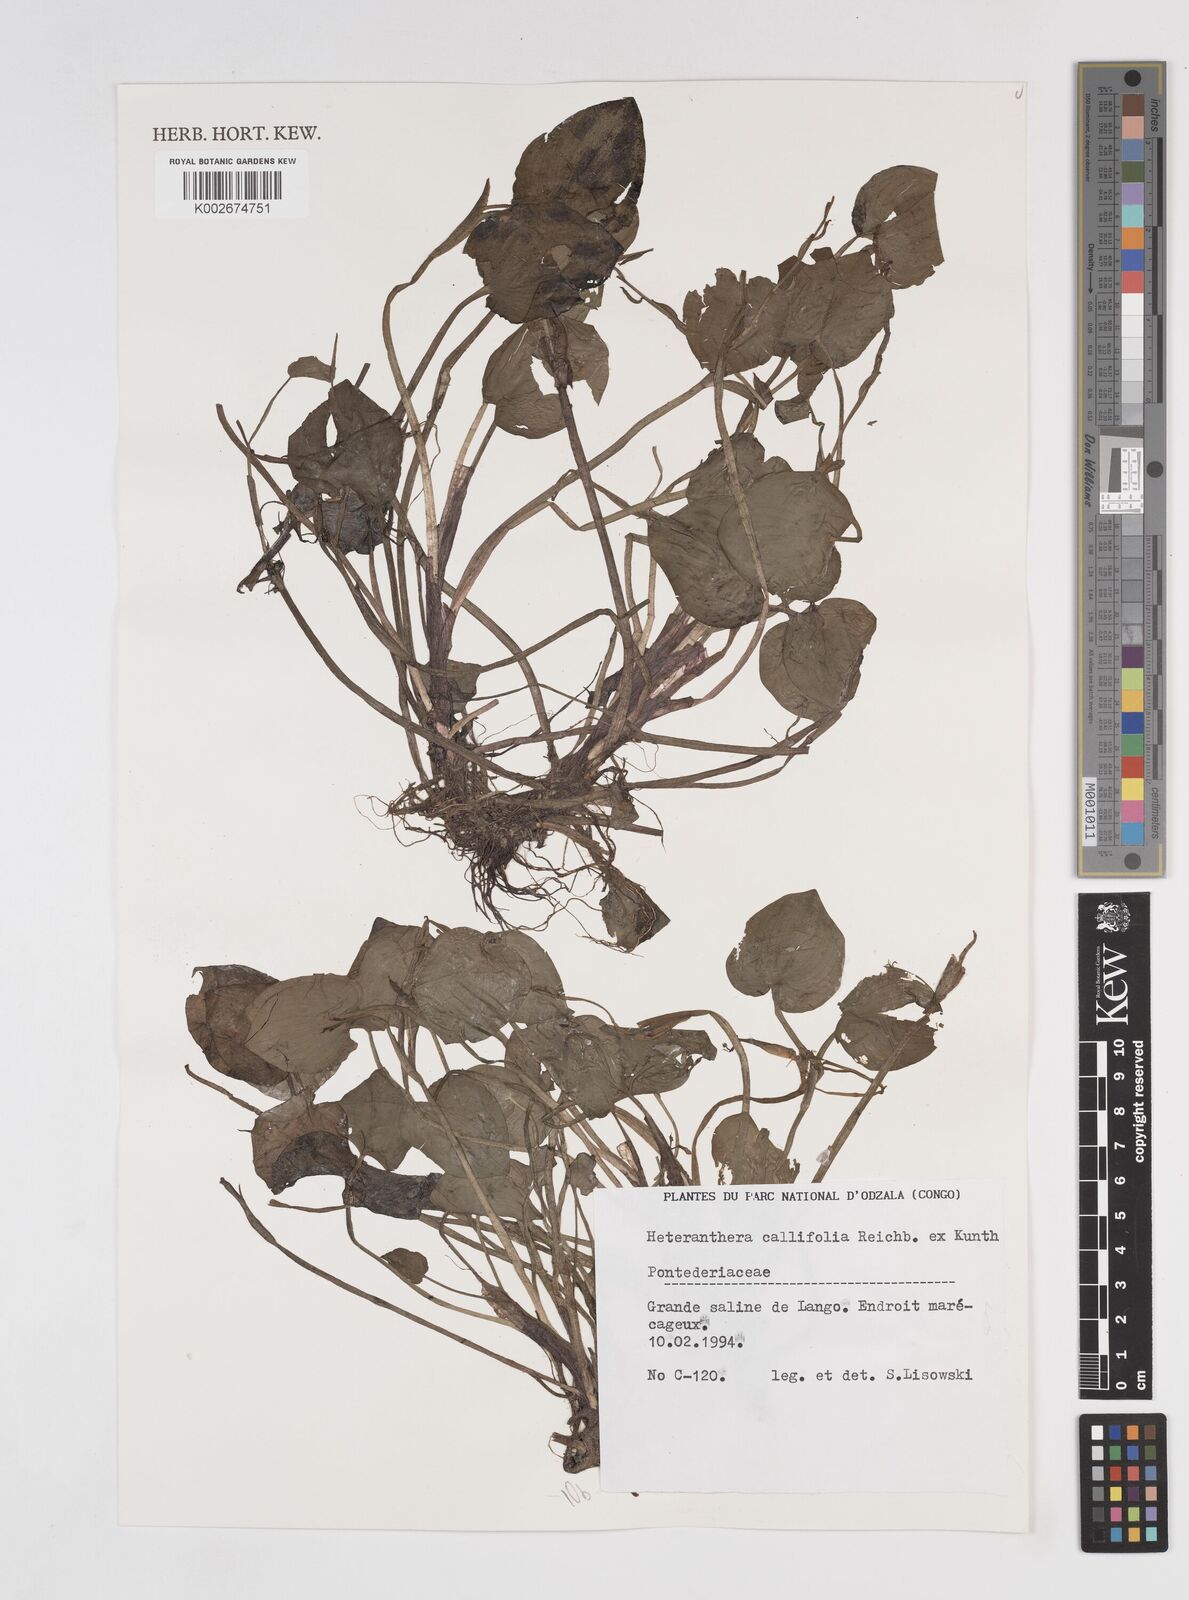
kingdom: Plantae
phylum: Tracheophyta
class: Liliopsida
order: Commelinales
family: Pontederiaceae
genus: Heteranthera
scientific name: Heteranthera callifolia
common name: Mud plantain
